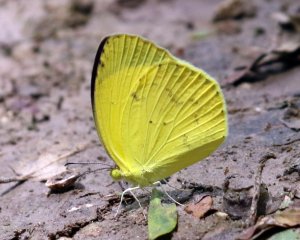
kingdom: Animalia
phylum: Arthropoda
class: Insecta
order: Lepidoptera
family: Pieridae
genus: Pyrisitia
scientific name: Pyrisitia nise
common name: Mimosa Yellow
